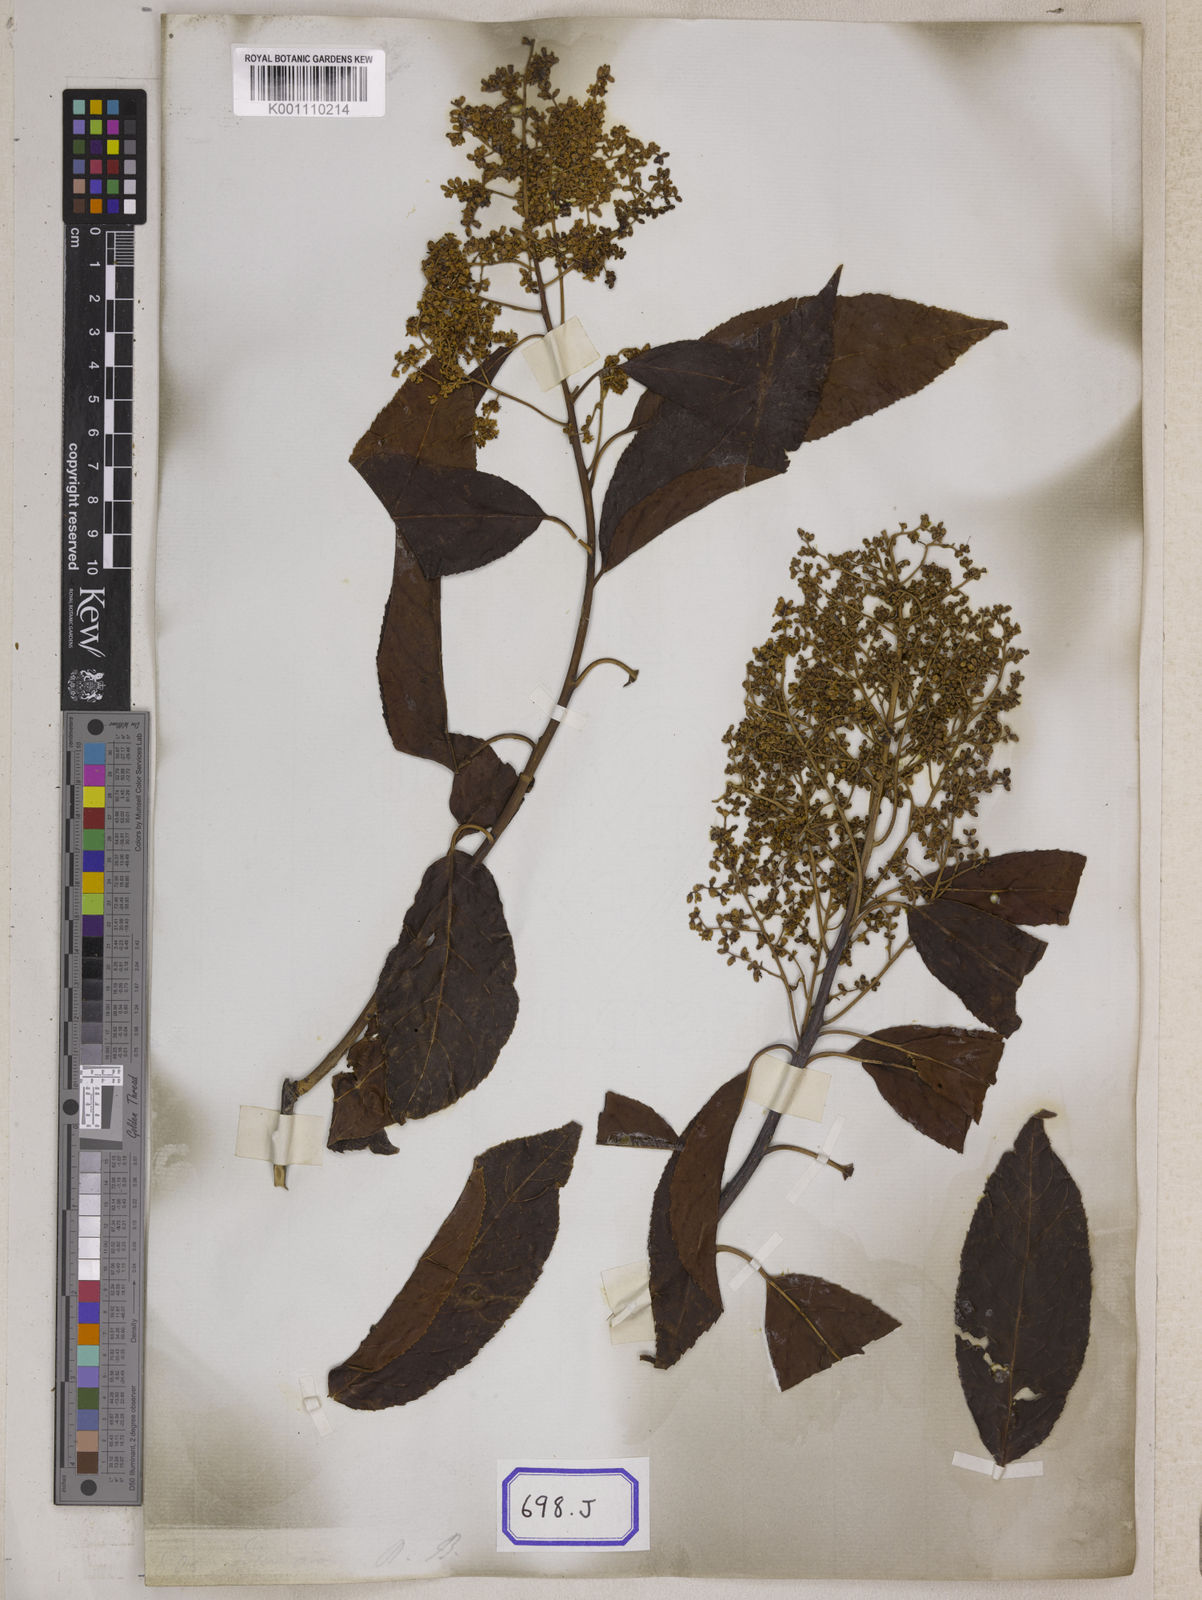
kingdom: Plantae
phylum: Tracheophyta
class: Magnoliopsida
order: Boraginales
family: Ehretiaceae
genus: Ehretia
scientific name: Ehretia acuminata
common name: Kodo wood
